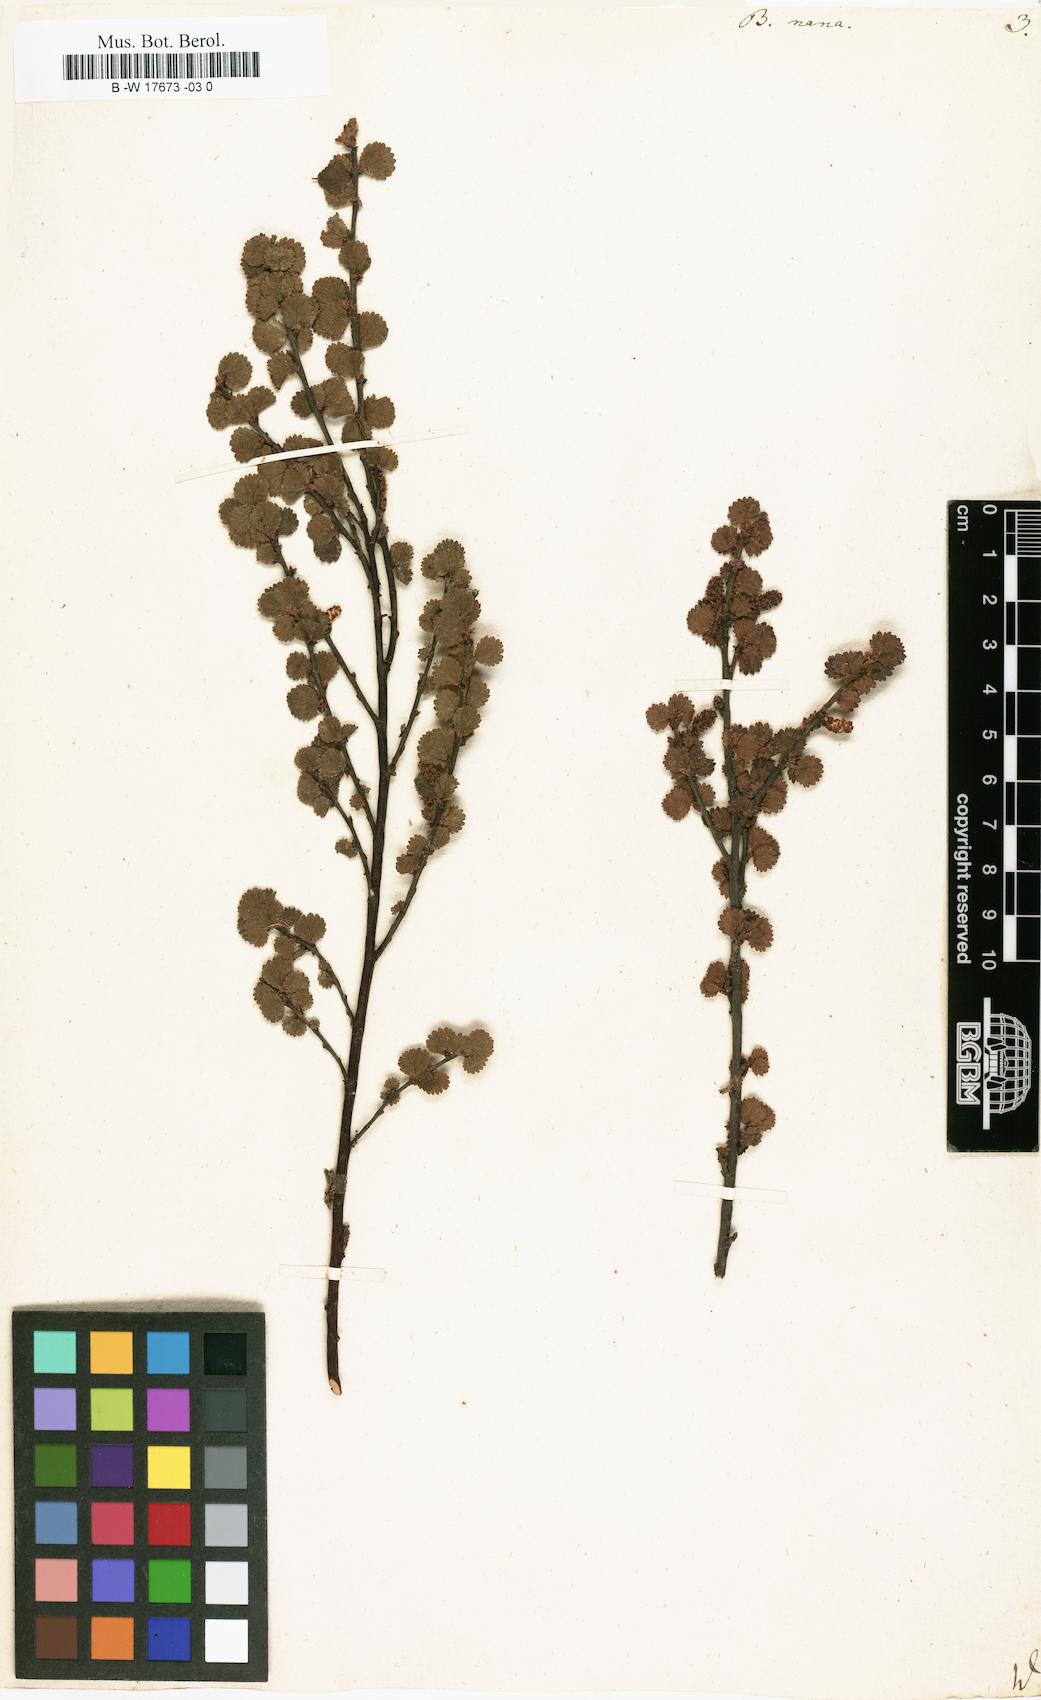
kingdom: Plantae
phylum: Tracheophyta
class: Magnoliopsida
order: Fagales
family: Betulaceae
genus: Betula
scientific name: Betula nana
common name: Arctic dwarf birch
